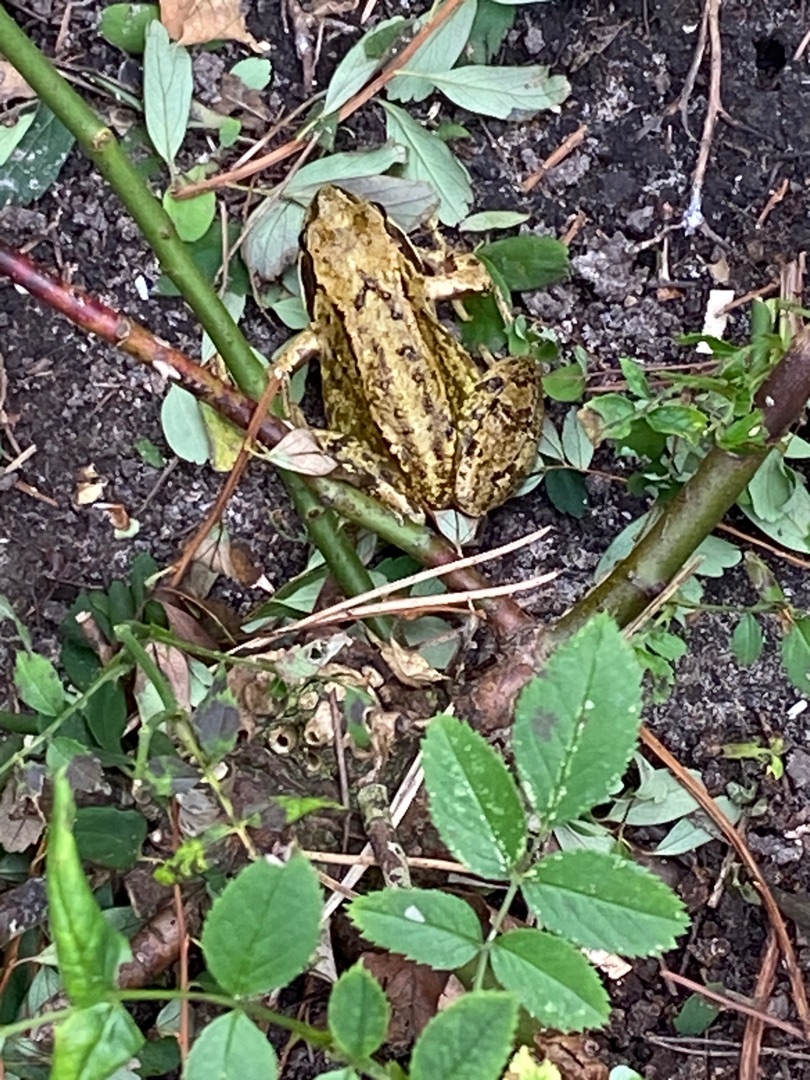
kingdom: Animalia
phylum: Chordata
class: Amphibia
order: Anura
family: Ranidae
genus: Rana
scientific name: Rana temporaria
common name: Butsnudet frø
